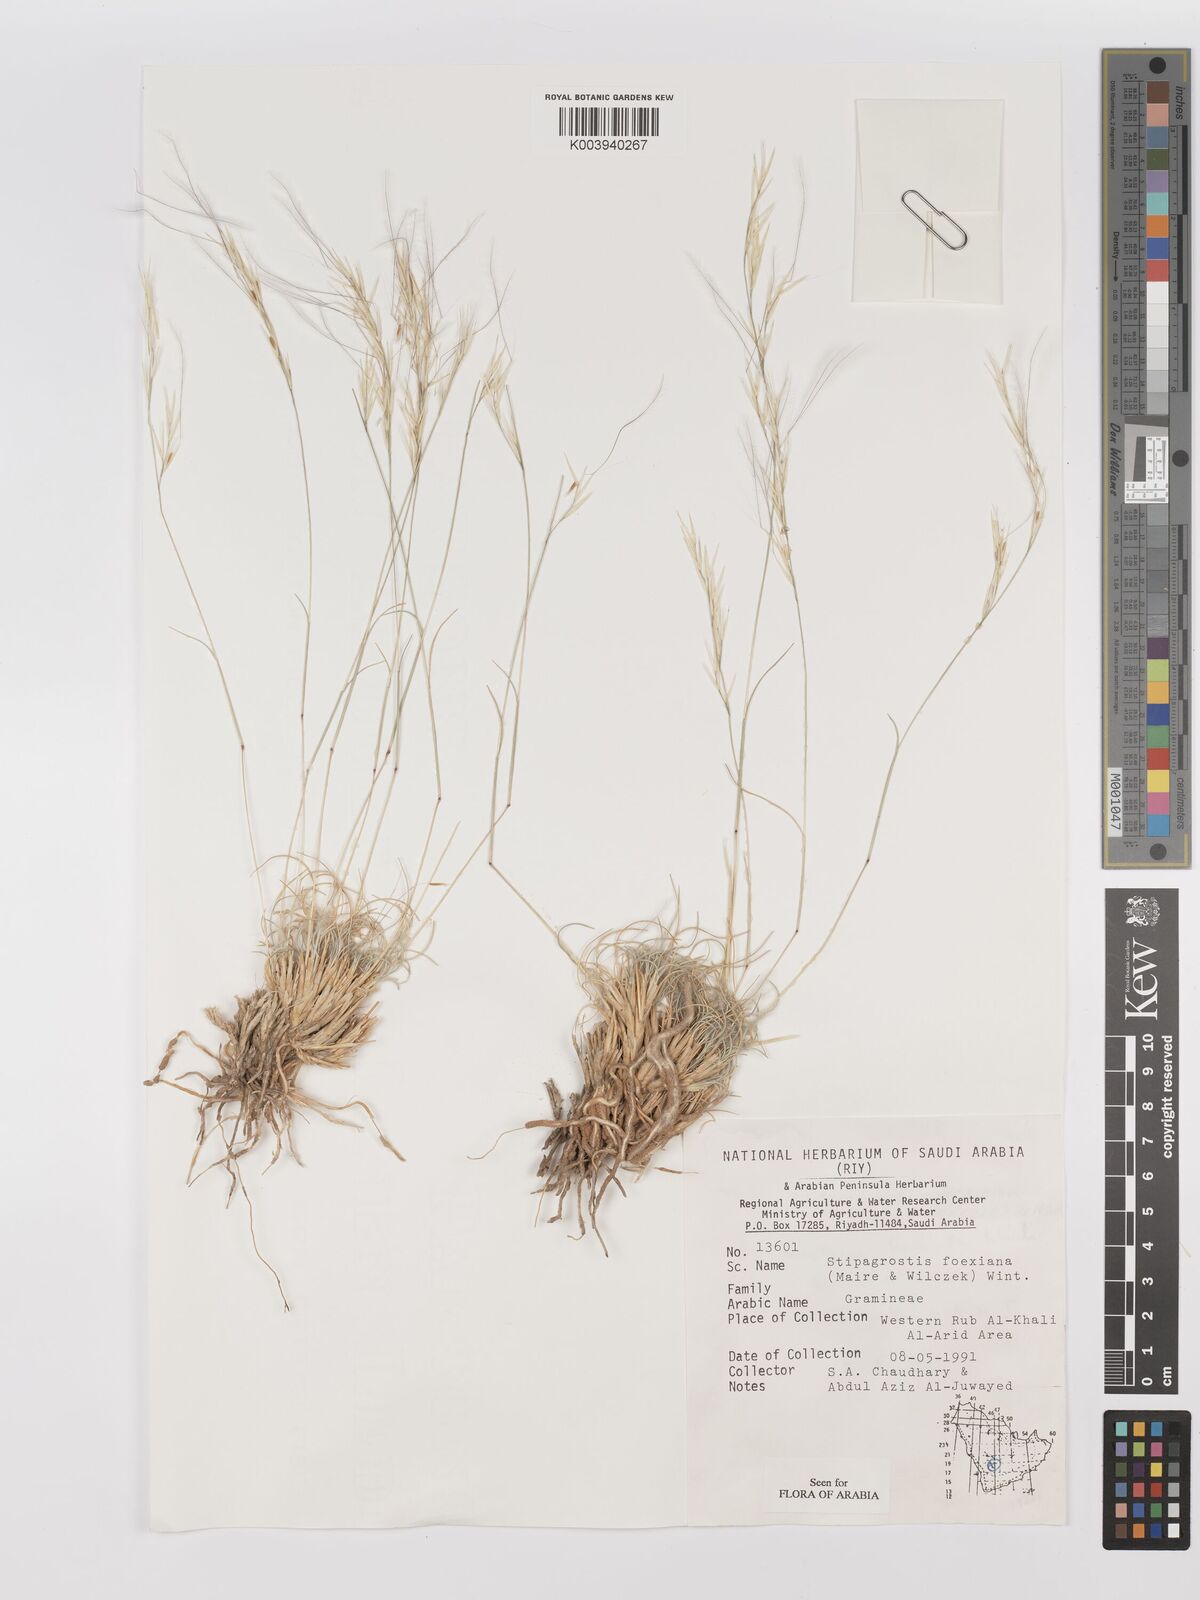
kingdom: Plantae
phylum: Tracheophyta
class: Liliopsida
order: Poales
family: Poaceae
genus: Stipagrostis
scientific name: Stipagrostis foexiana
